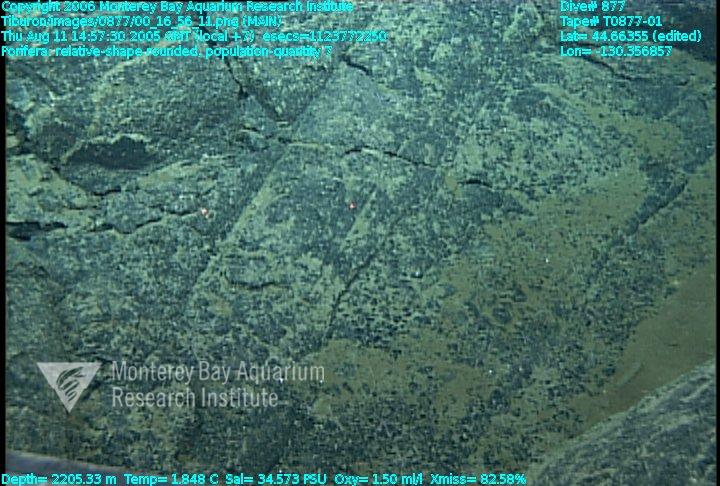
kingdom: Animalia
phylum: Porifera
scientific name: Porifera
